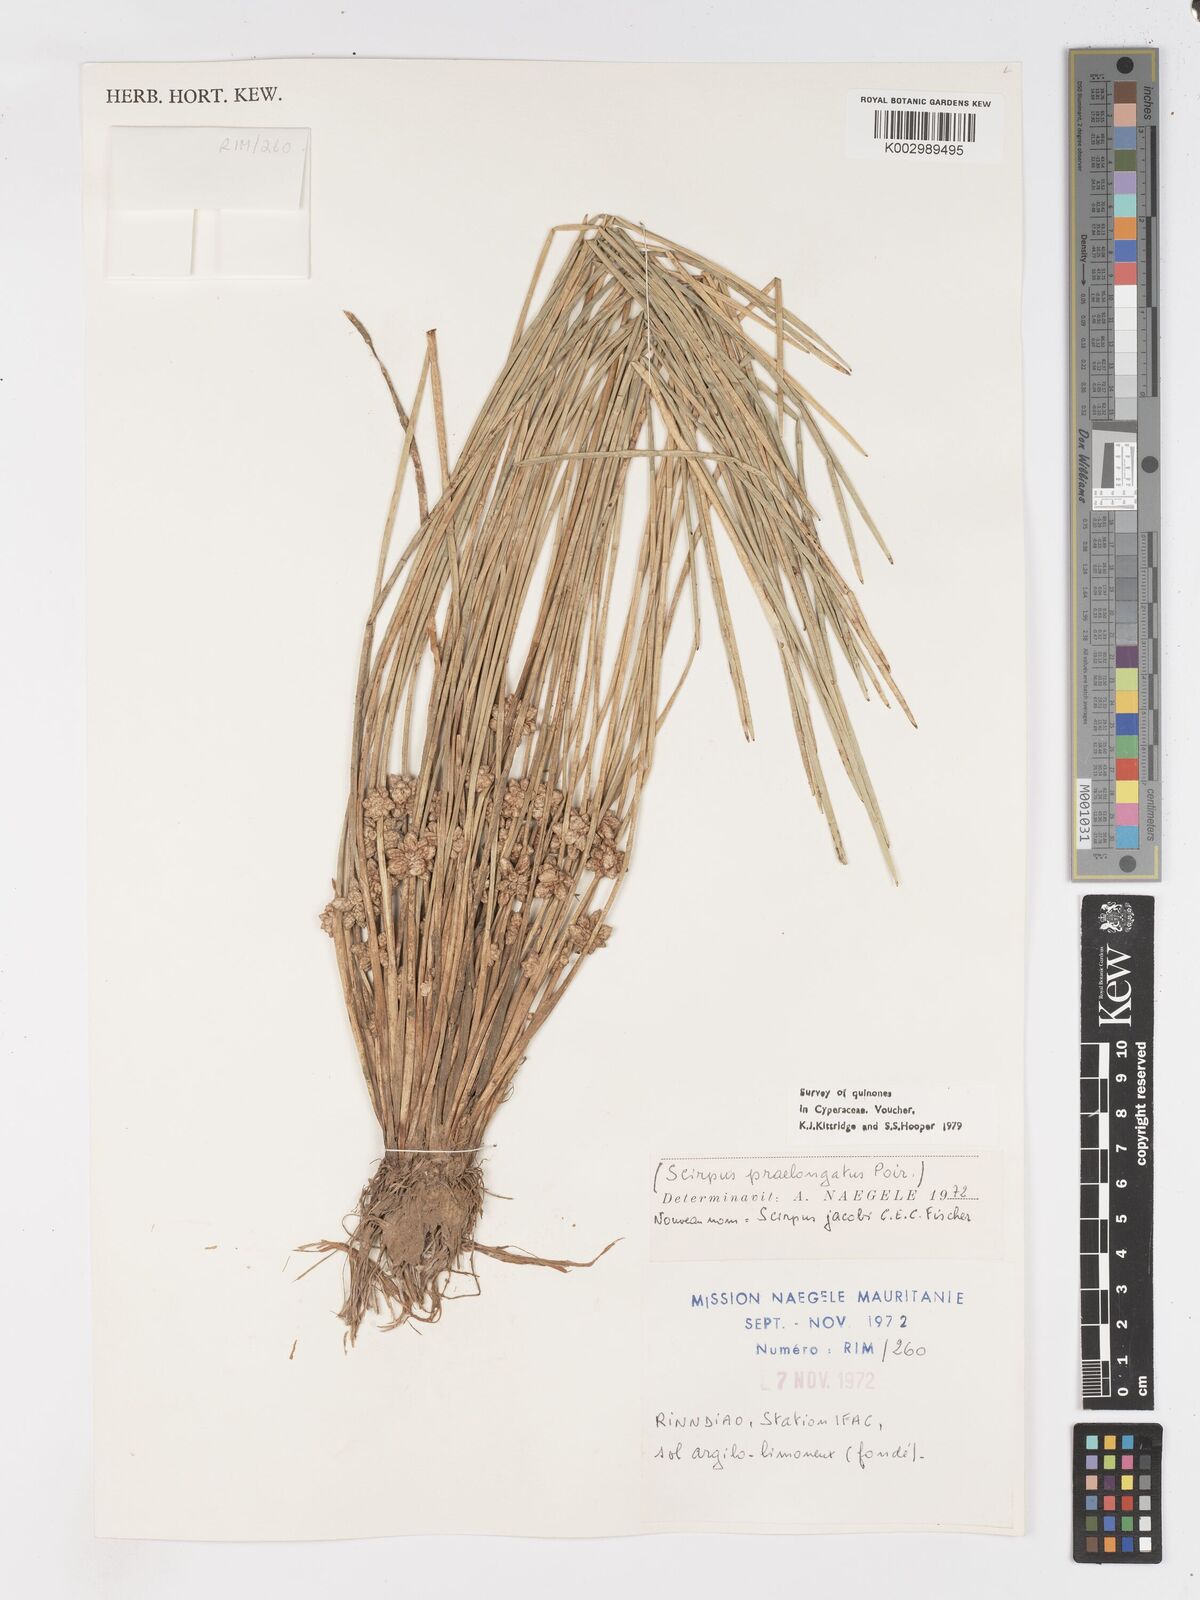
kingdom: Plantae
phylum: Tracheophyta
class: Liliopsida
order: Poales
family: Cyperaceae
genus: Schoenoplectiella
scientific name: Schoenoplectiella senegalensis
